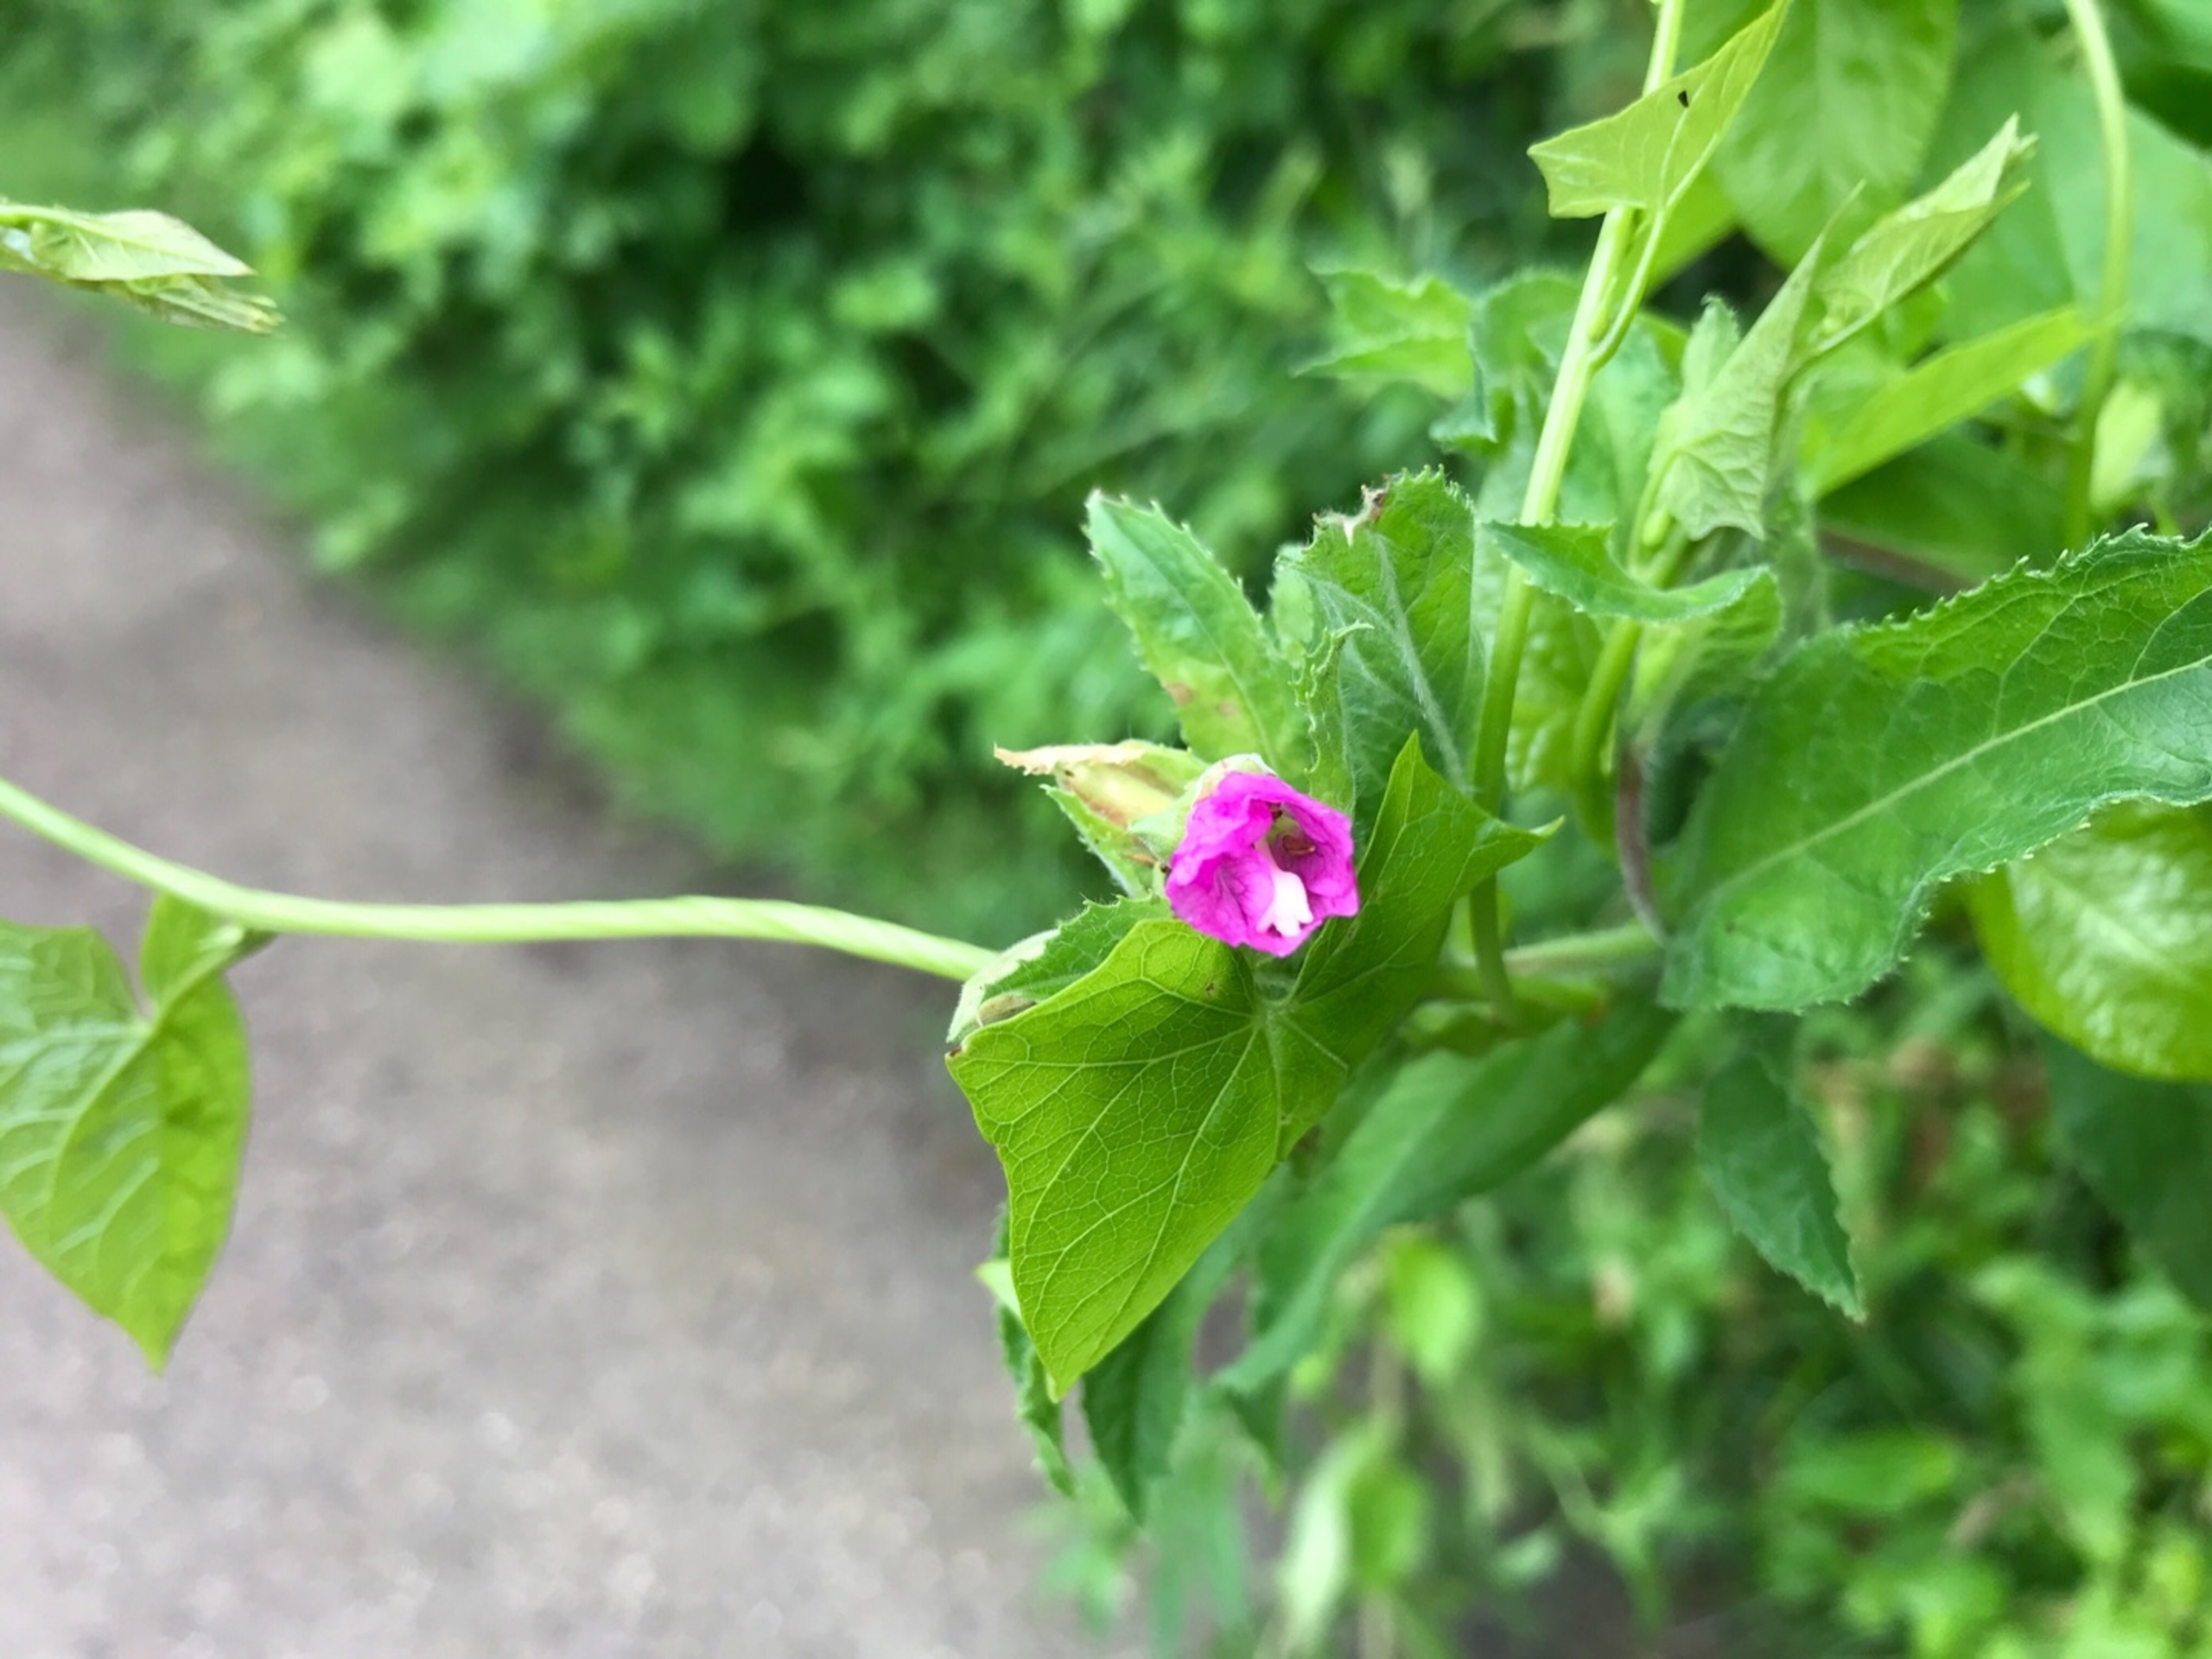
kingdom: Plantae
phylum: Tracheophyta
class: Magnoliopsida
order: Myrtales
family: Onagraceae
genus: Epilobium
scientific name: Epilobium hirsutum
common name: Lådden dueurt
